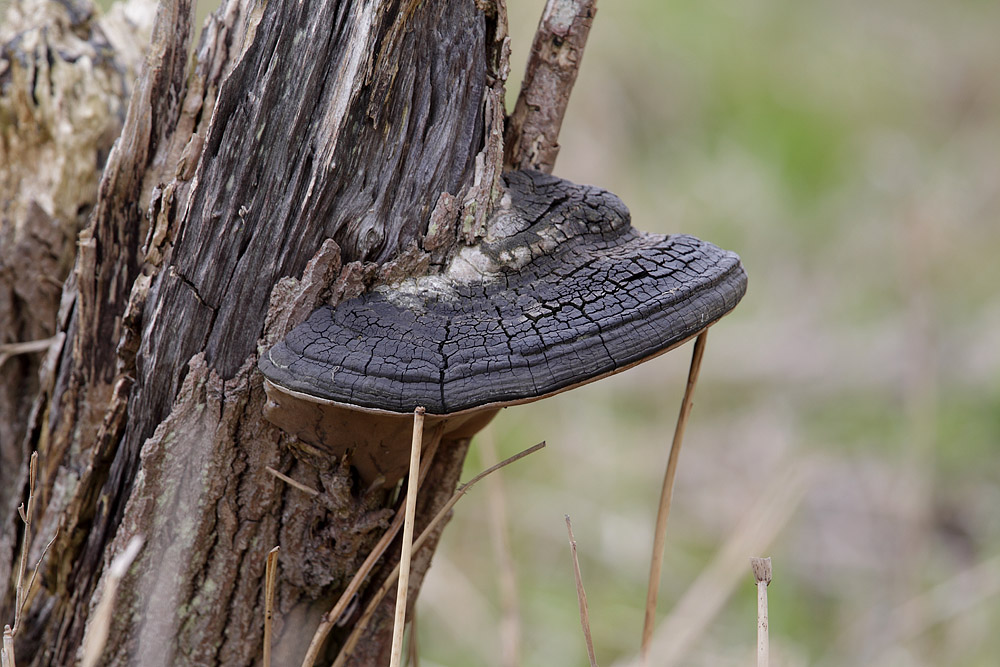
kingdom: Fungi
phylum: Basidiomycota
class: Agaricomycetes
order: Hymenochaetales
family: Hymenochaetaceae
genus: Phellinus
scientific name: Phellinus igniarius
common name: almindelig ildporesvamp
